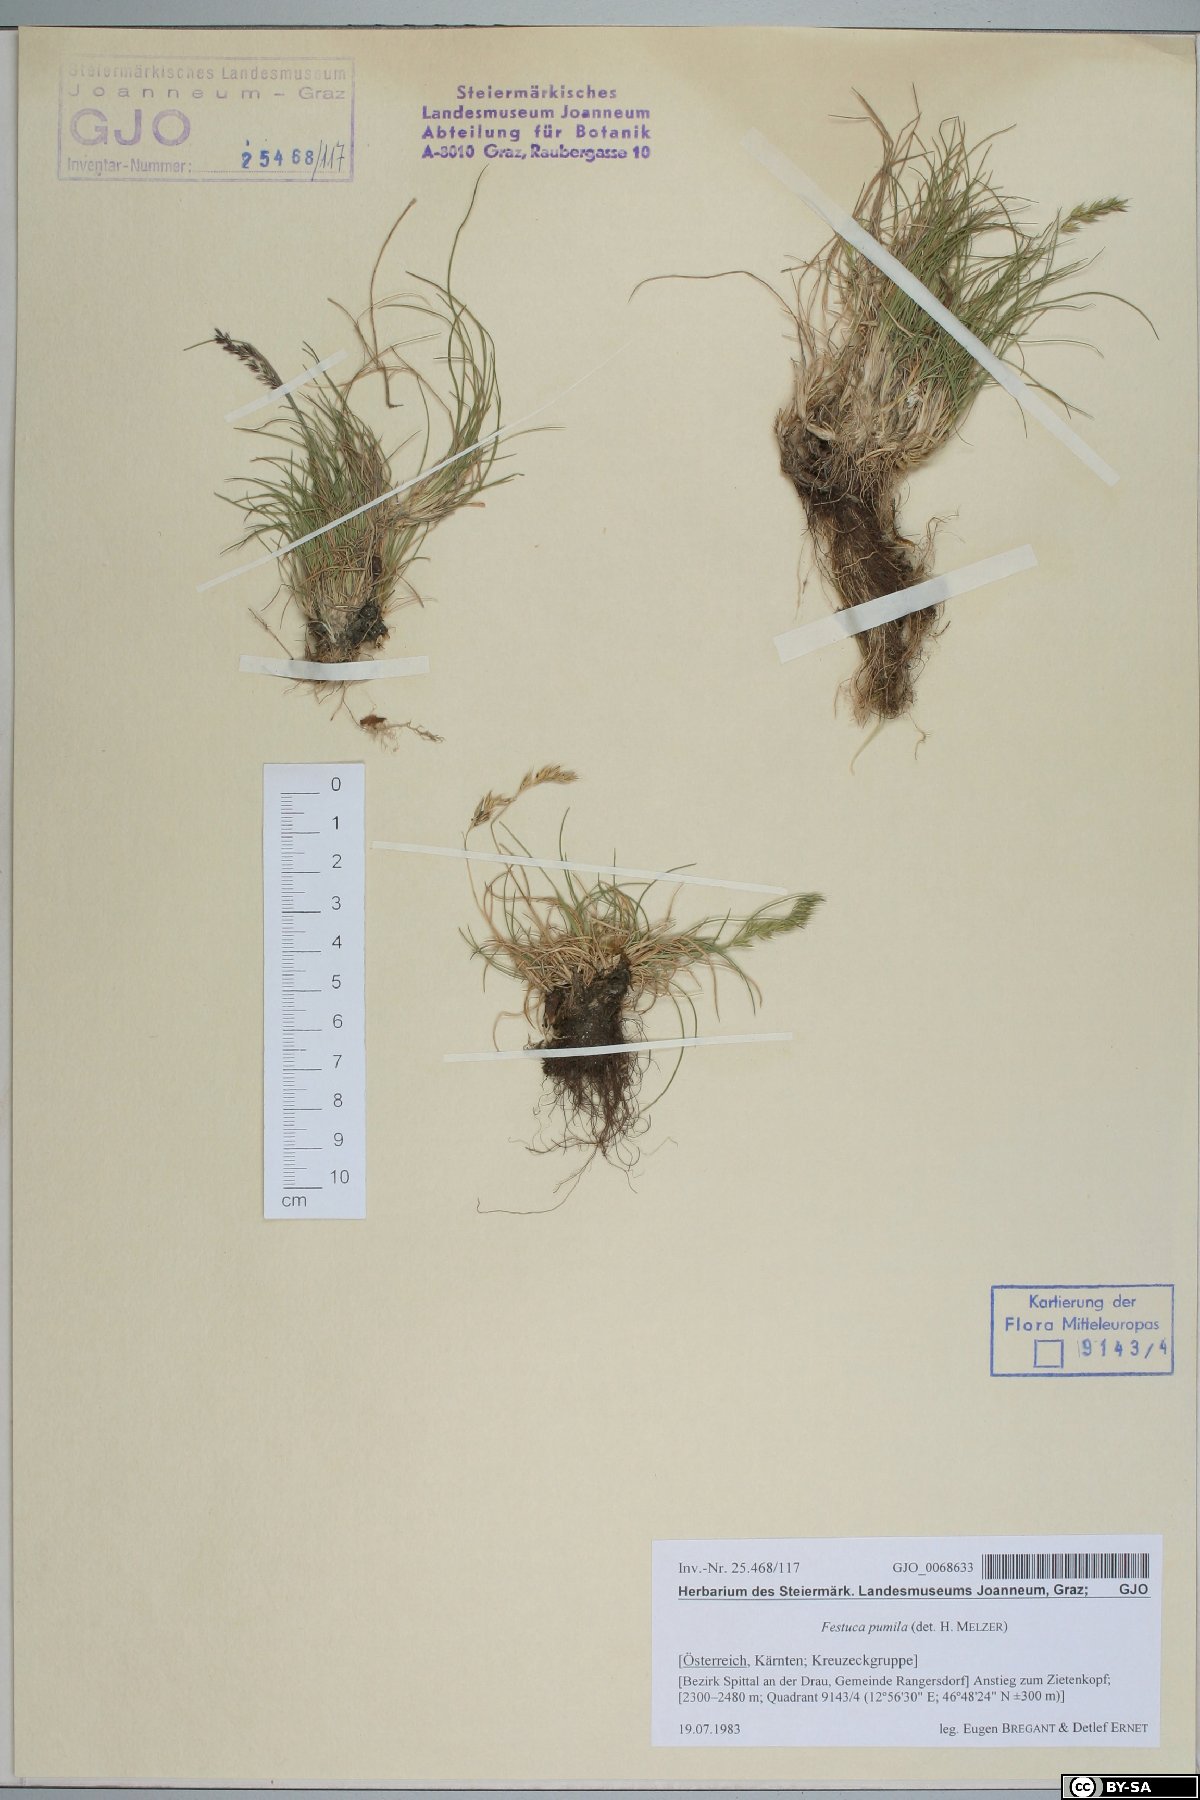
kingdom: Plantae
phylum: Tracheophyta
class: Liliopsida
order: Poales
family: Poaceae
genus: Festuca
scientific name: Festuca quadriflora
